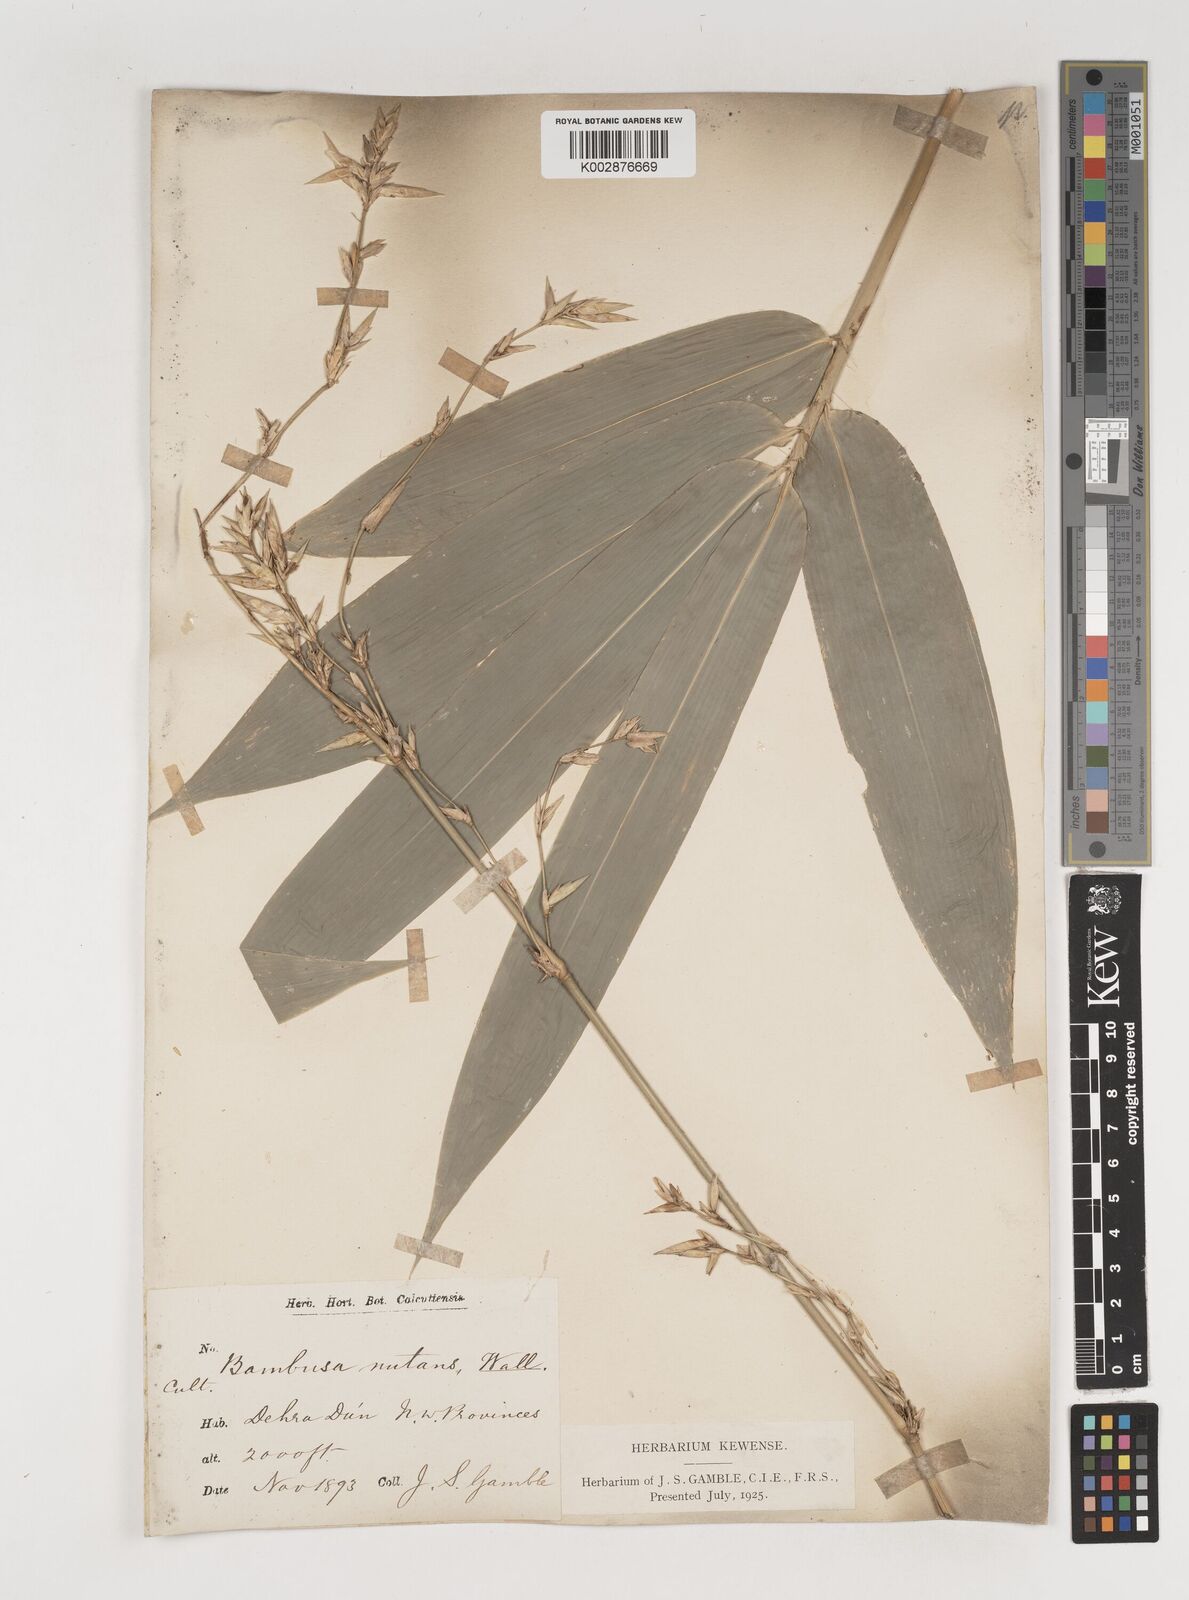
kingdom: Plantae
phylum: Tracheophyta
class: Liliopsida
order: Poales
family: Poaceae
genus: Bambusa
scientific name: Bambusa nutans
